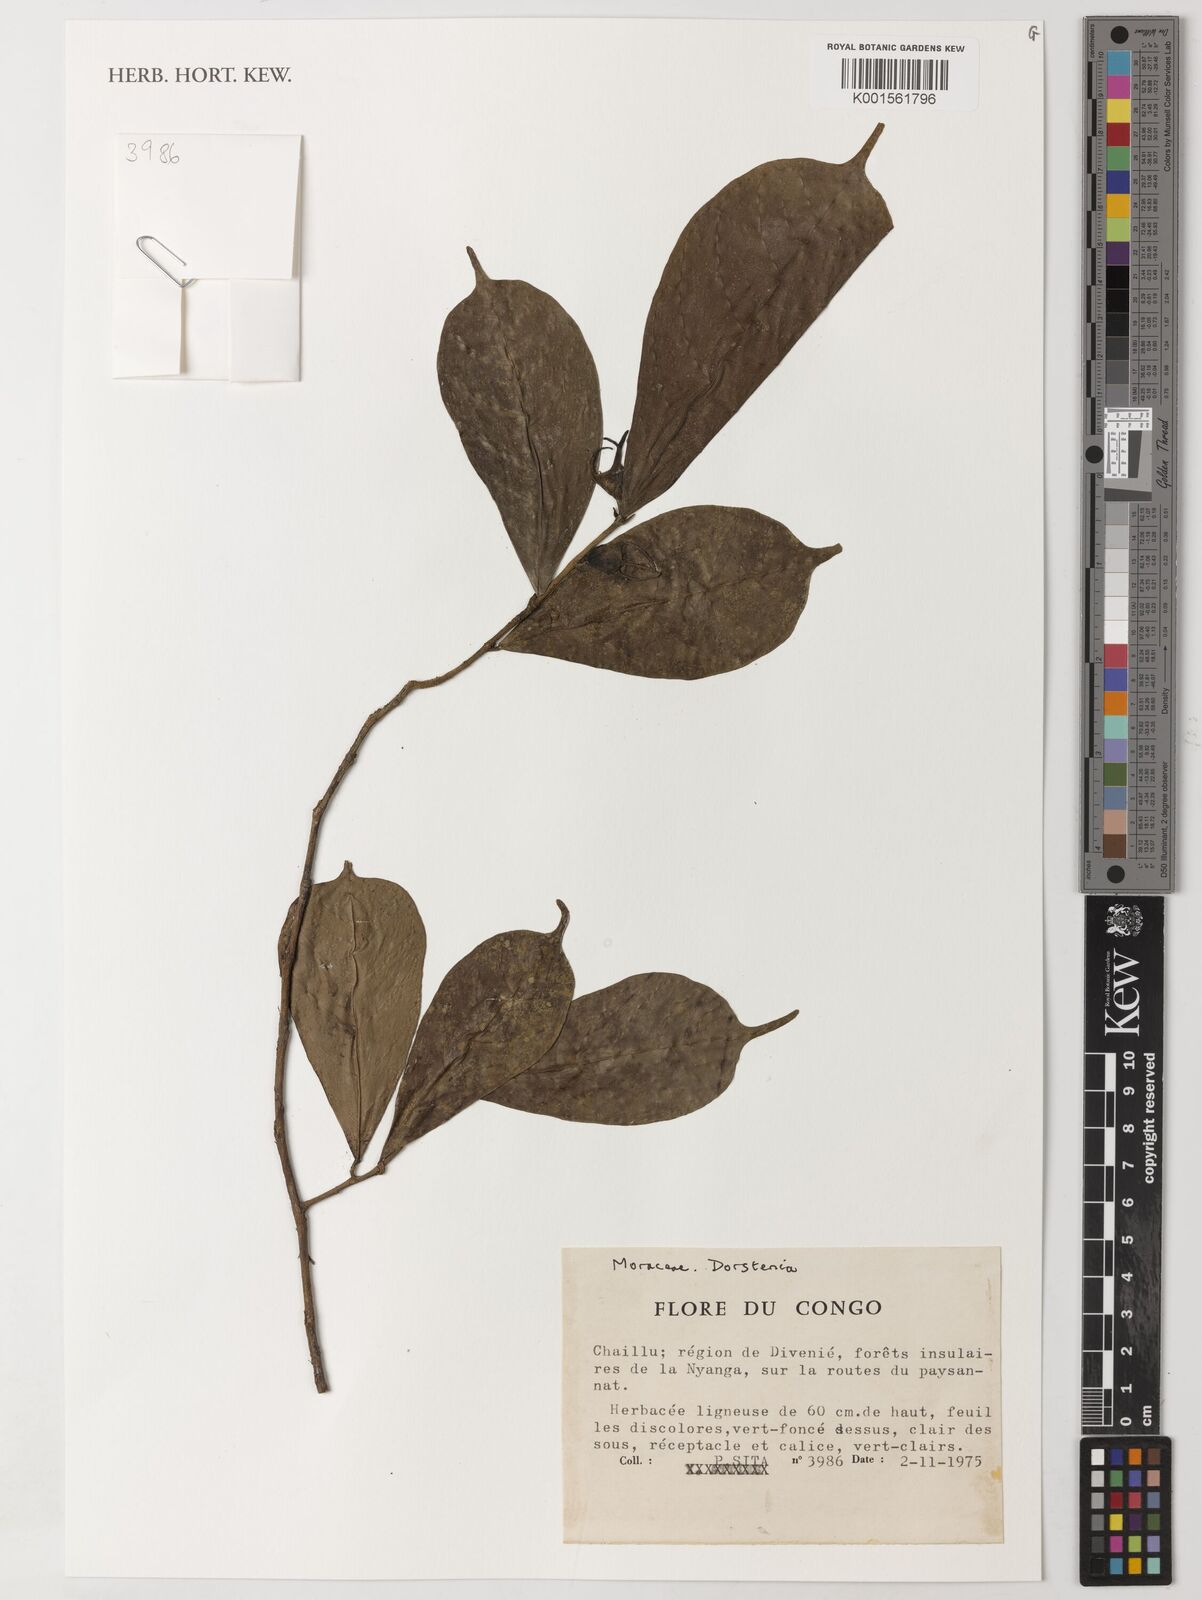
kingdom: Plantae
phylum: Tracheophyta
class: Magnoliopsida
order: Rosales
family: Moraceae
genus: Dorstenia
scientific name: Dorstenia
